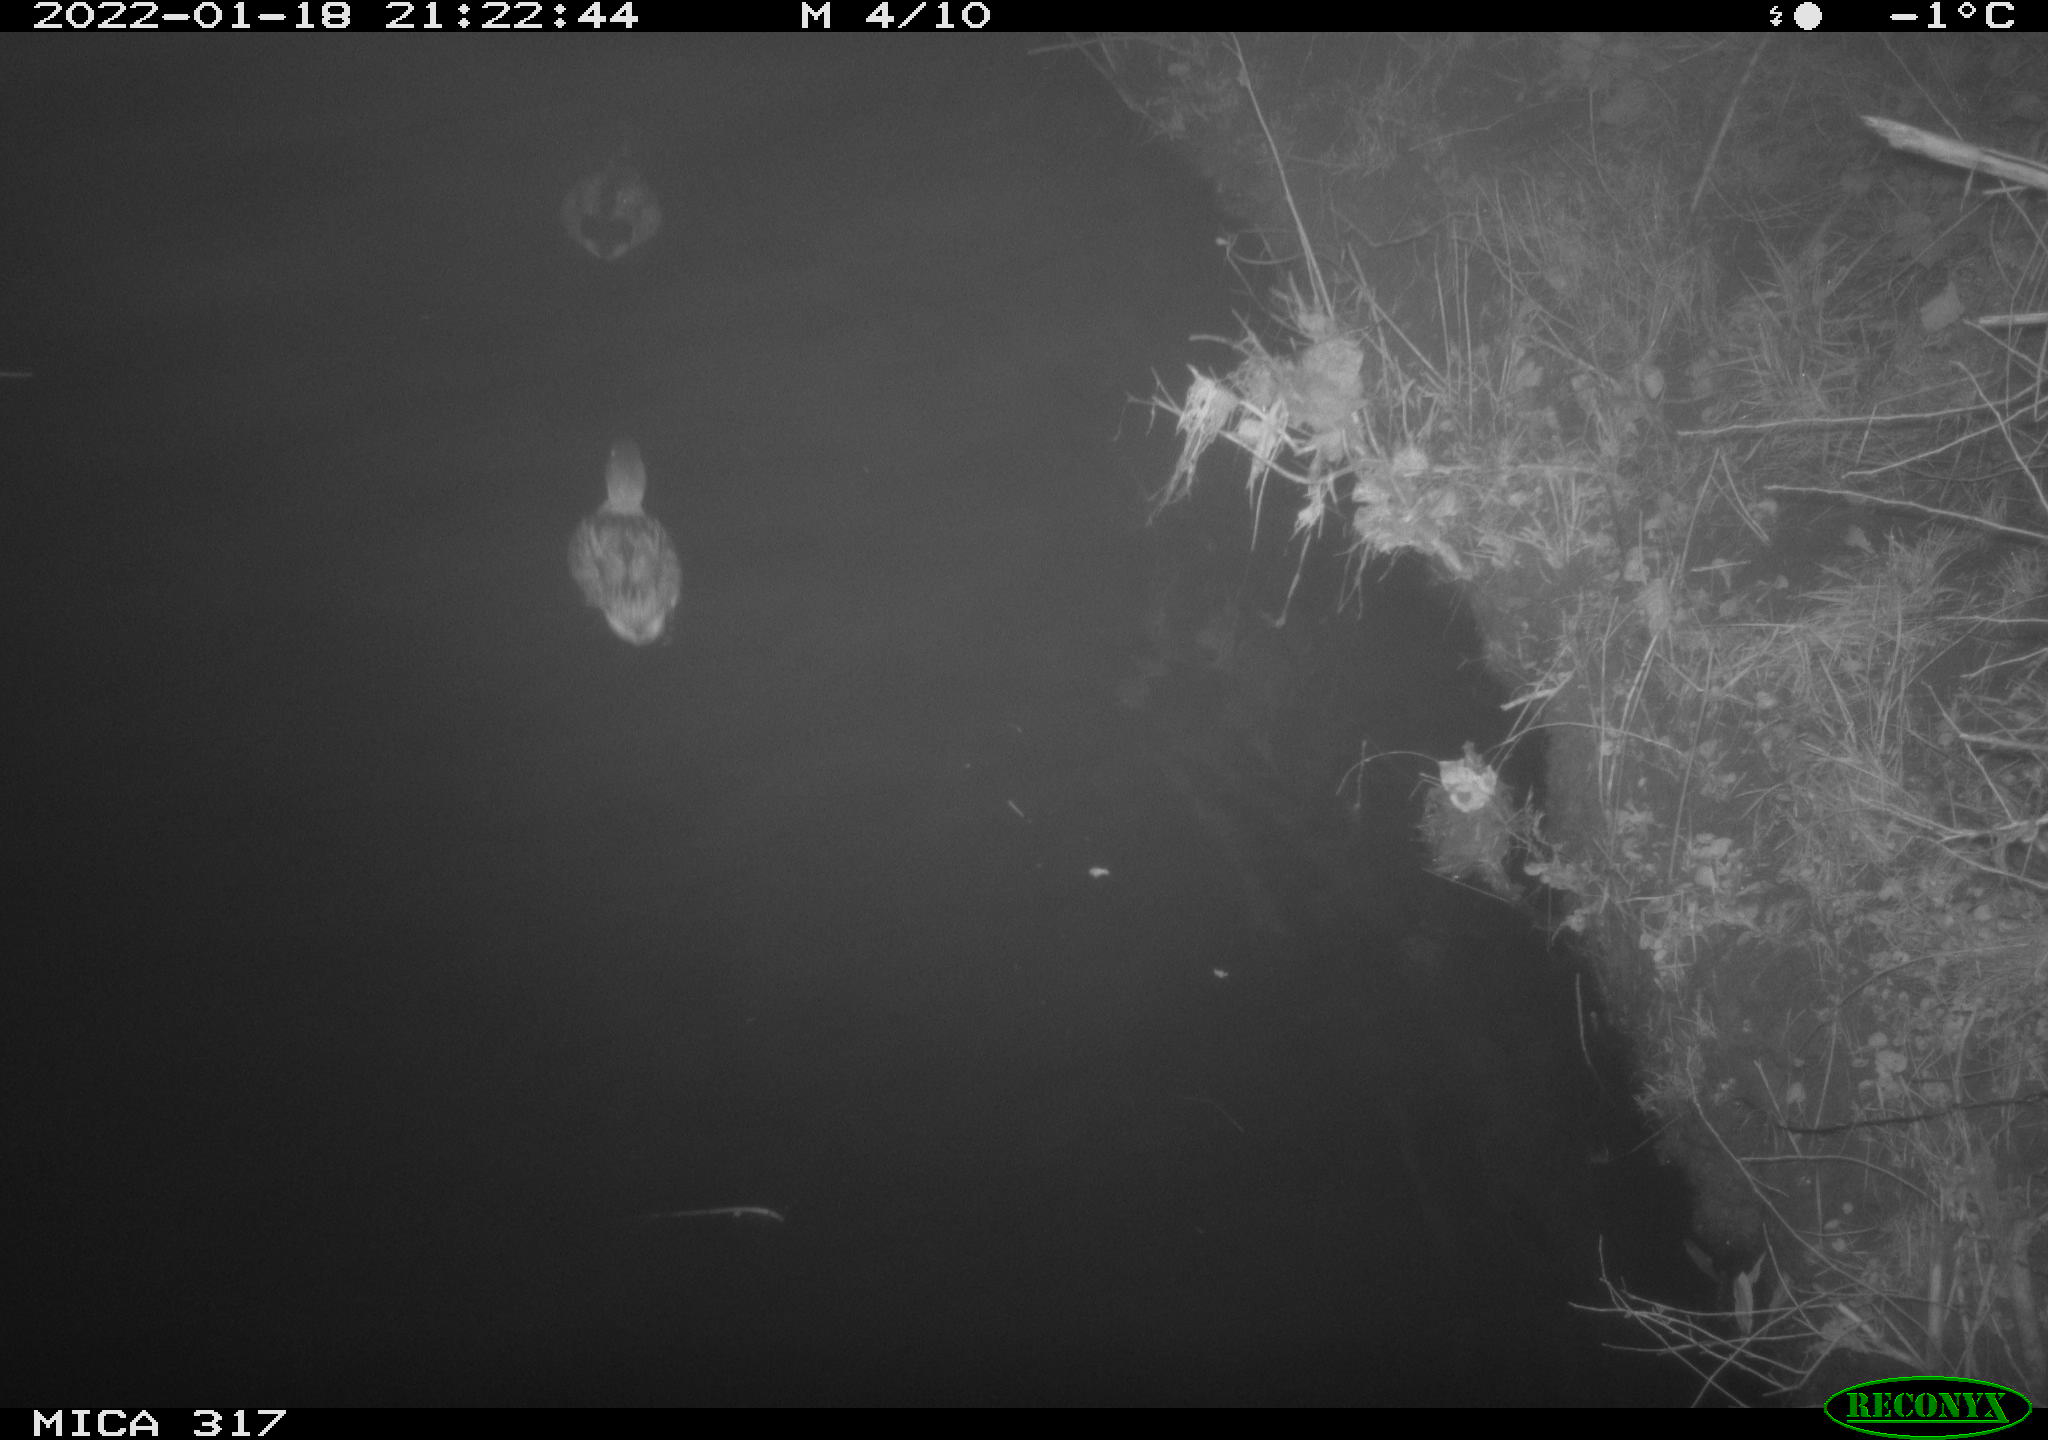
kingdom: Animalia
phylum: Chordata
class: Aves
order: Anseriformes
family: Anatidae
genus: Anas
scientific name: Anas platyrhynchos
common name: Mallard
